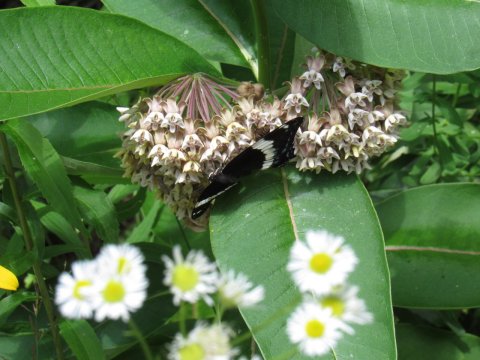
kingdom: Animalia
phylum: Arthropoda
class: Insecta
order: Lepidoptera
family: Nymphalidae
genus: Limenitis
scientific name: Limenitis arthemis
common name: Red-spotted Admiral
